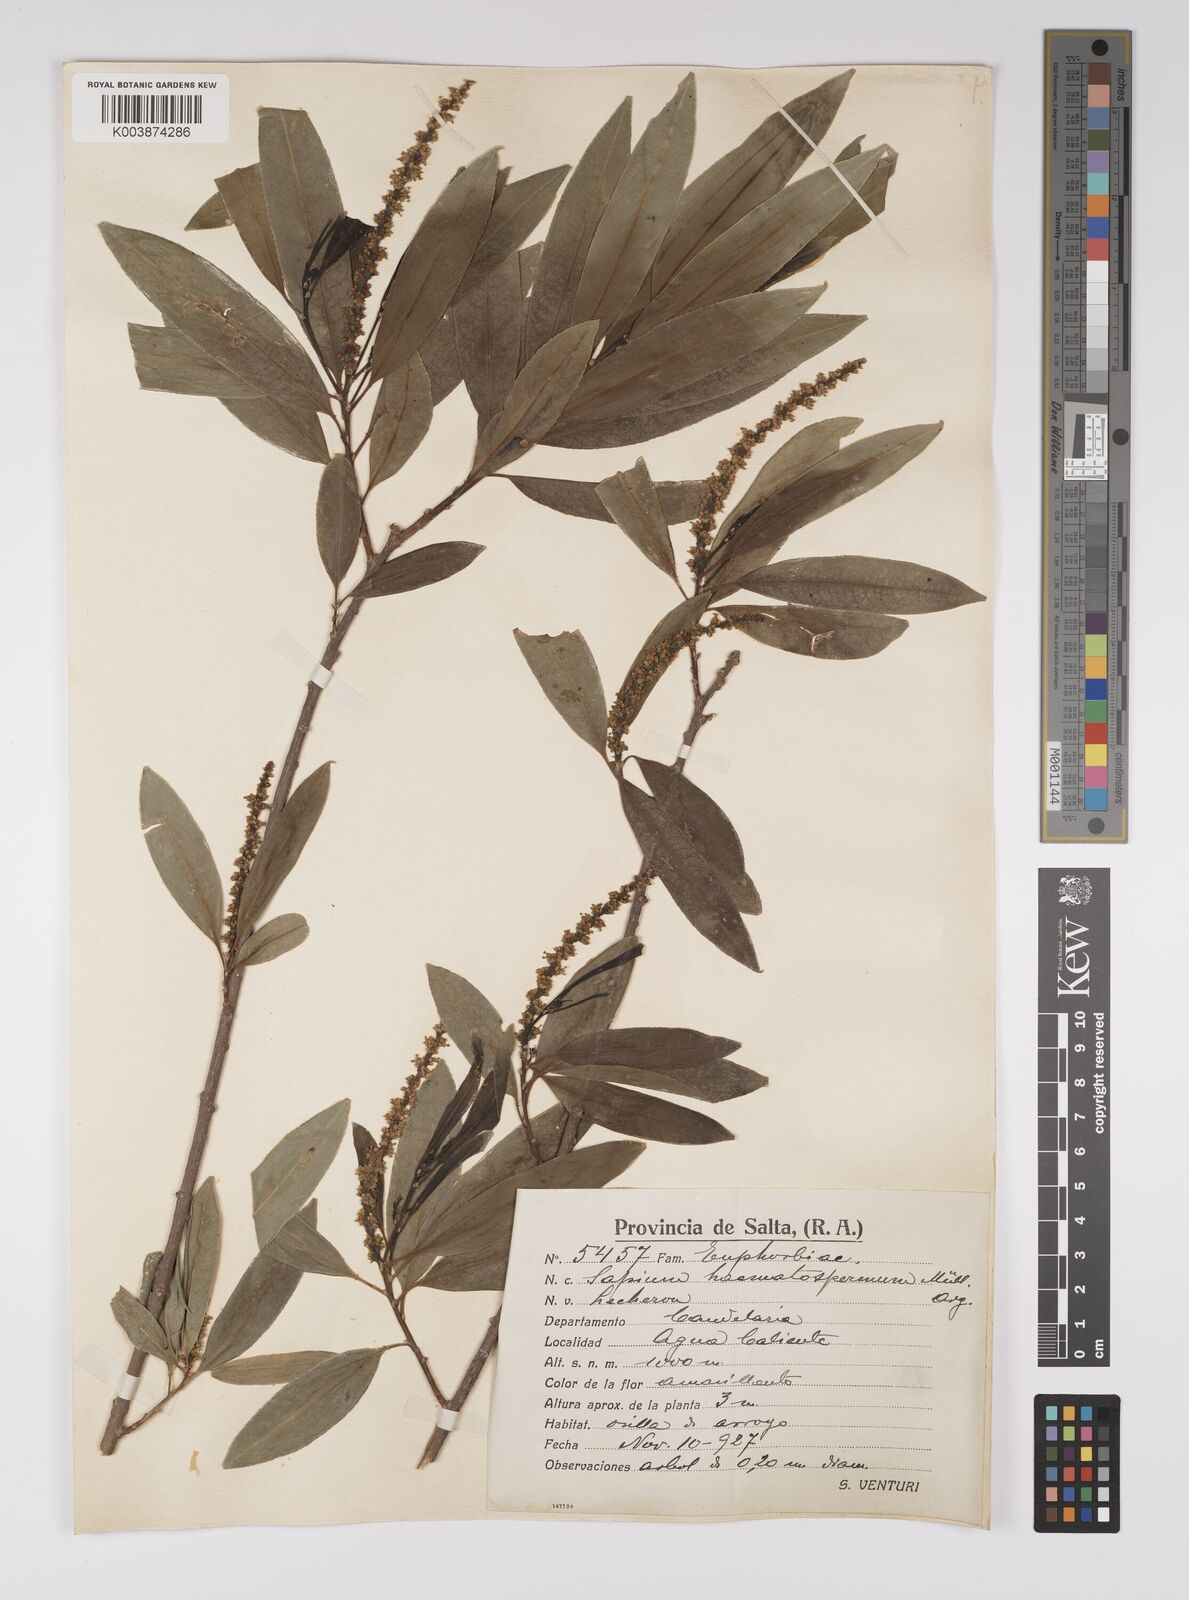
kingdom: Plantae
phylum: Tracheophyta
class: Magnoliopsida
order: Malpighiales
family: Euphorbiaceae
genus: Sapium
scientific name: Sapium haematospermum
